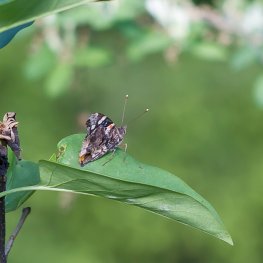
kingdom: Animalia
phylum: Arthropoda
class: Insecta
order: Lepidoptera
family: Nymphalidae
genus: Vanessa
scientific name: Vanessa atalanta
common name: Red Admiral
